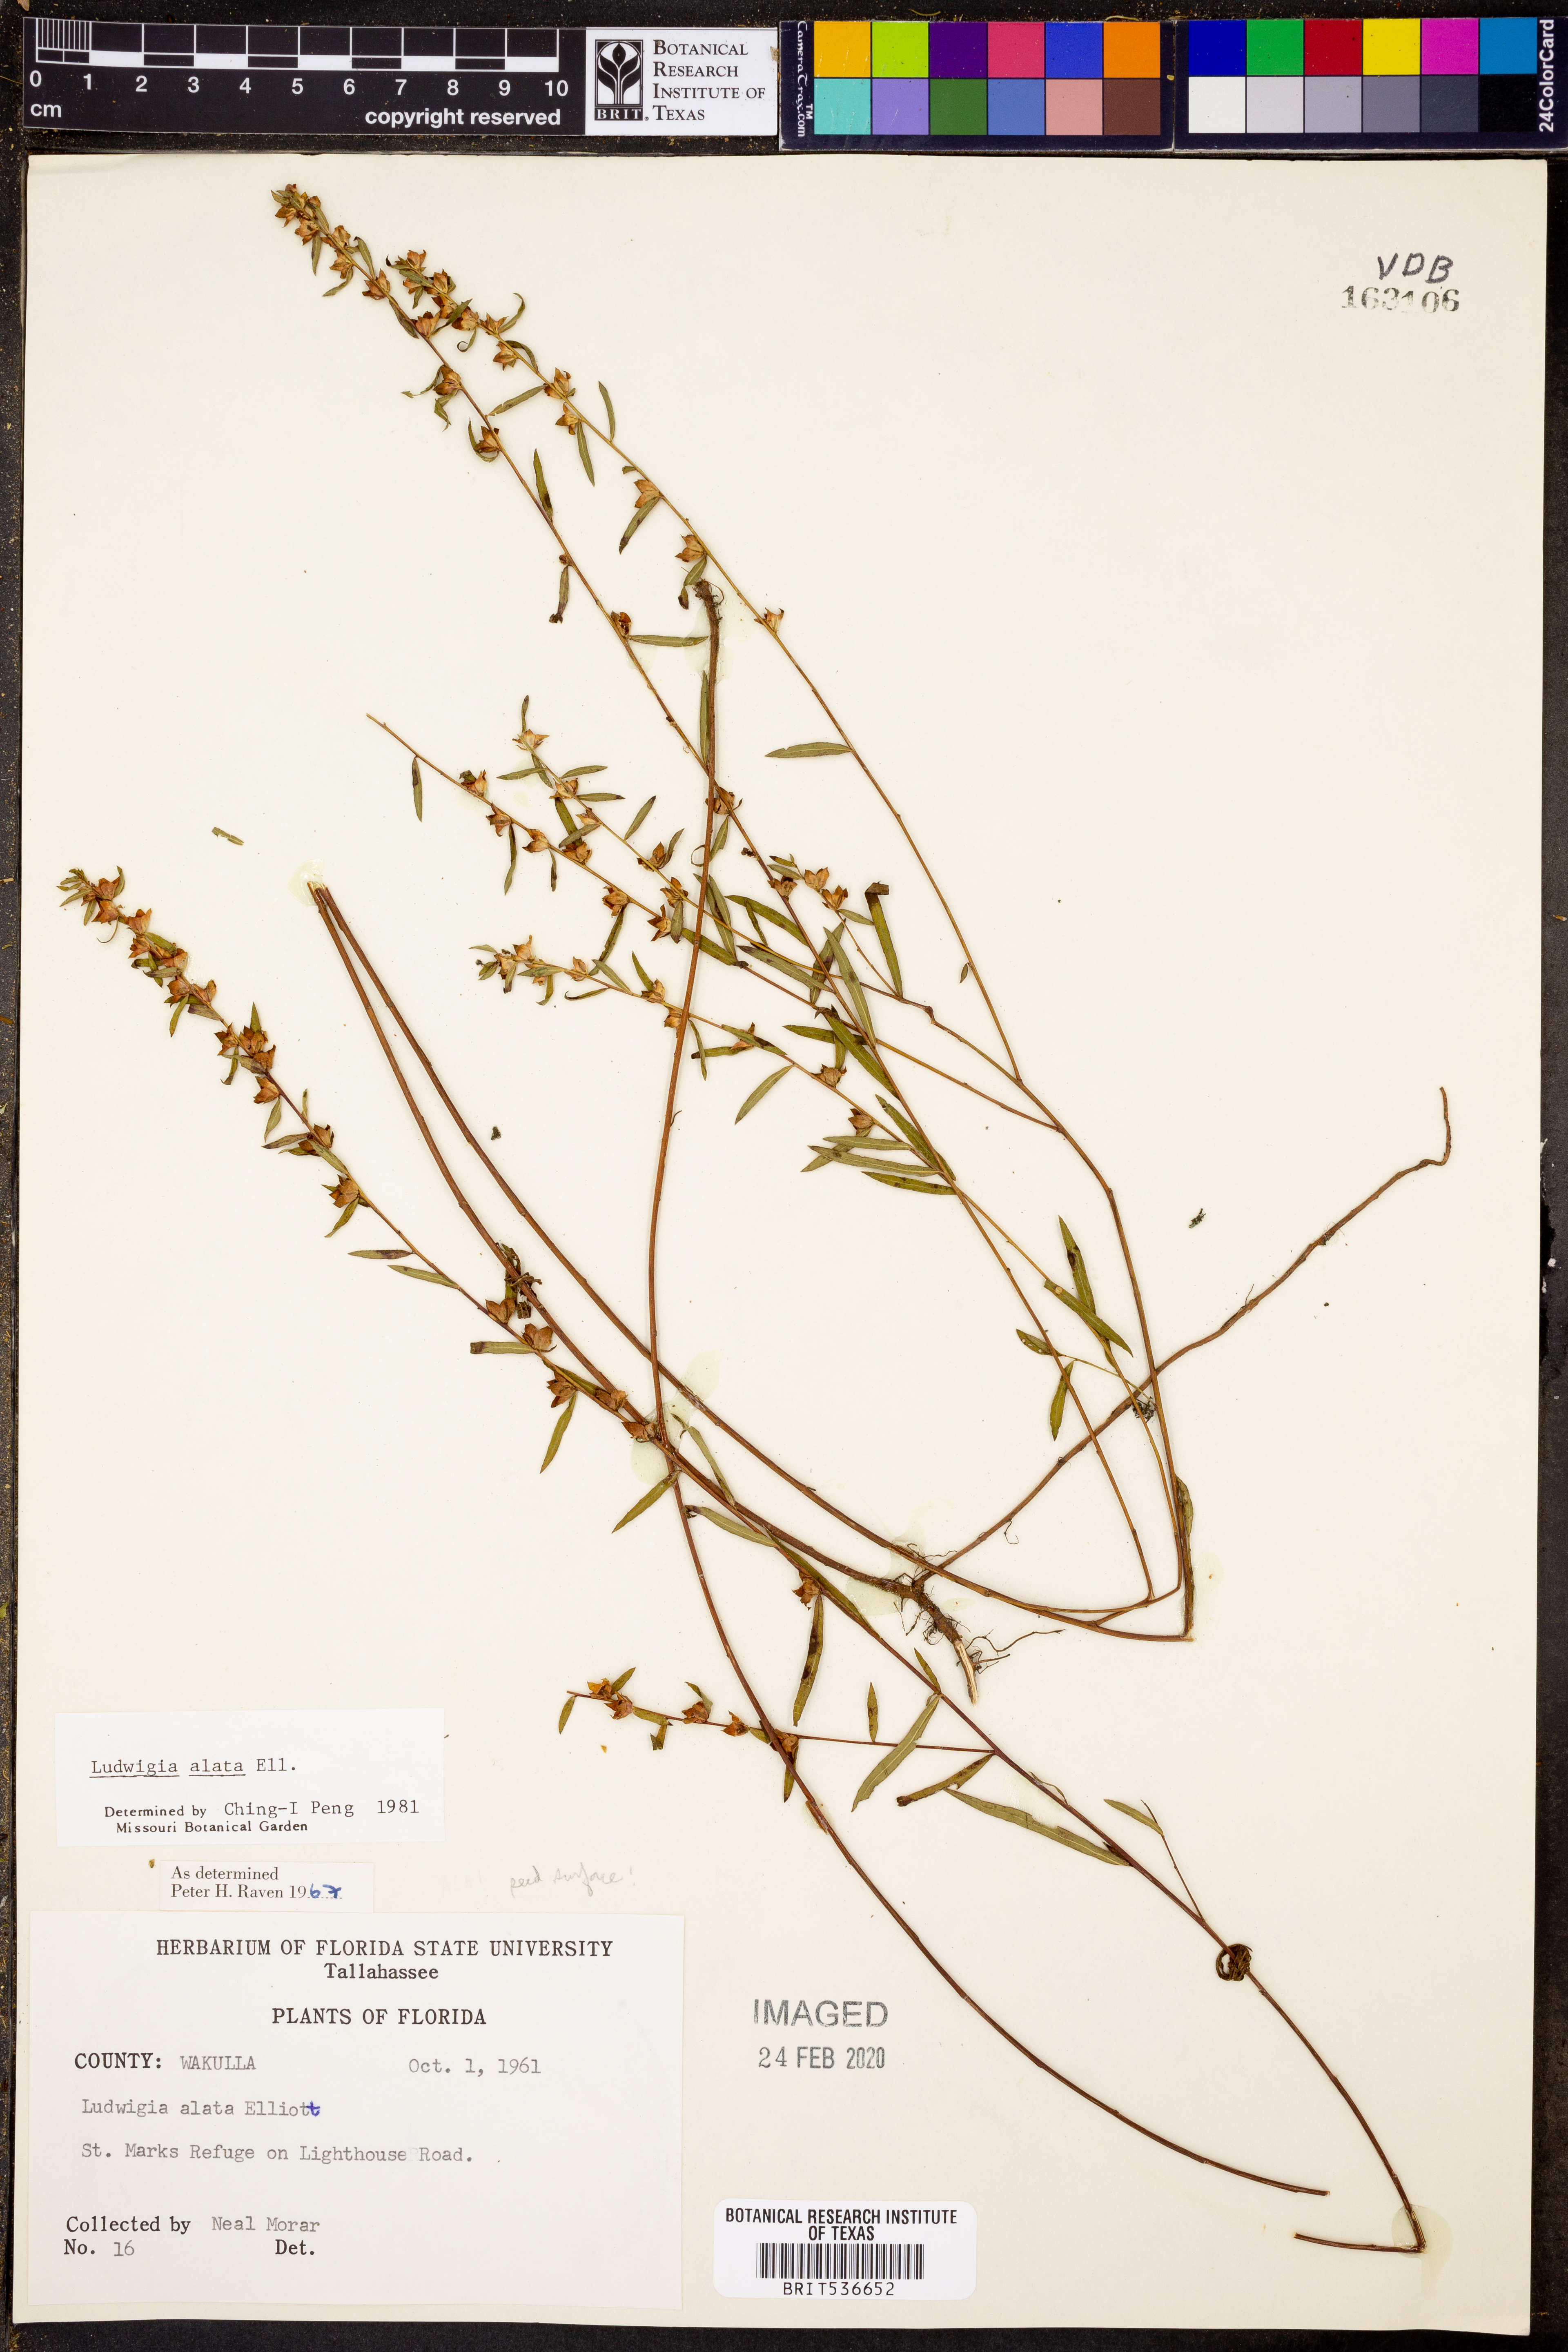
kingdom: Plantae
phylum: Tracheophyta
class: Magnoliopsida
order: Myrtales
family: Onagraceae
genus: Ludwigia
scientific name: Ludwigia alata
